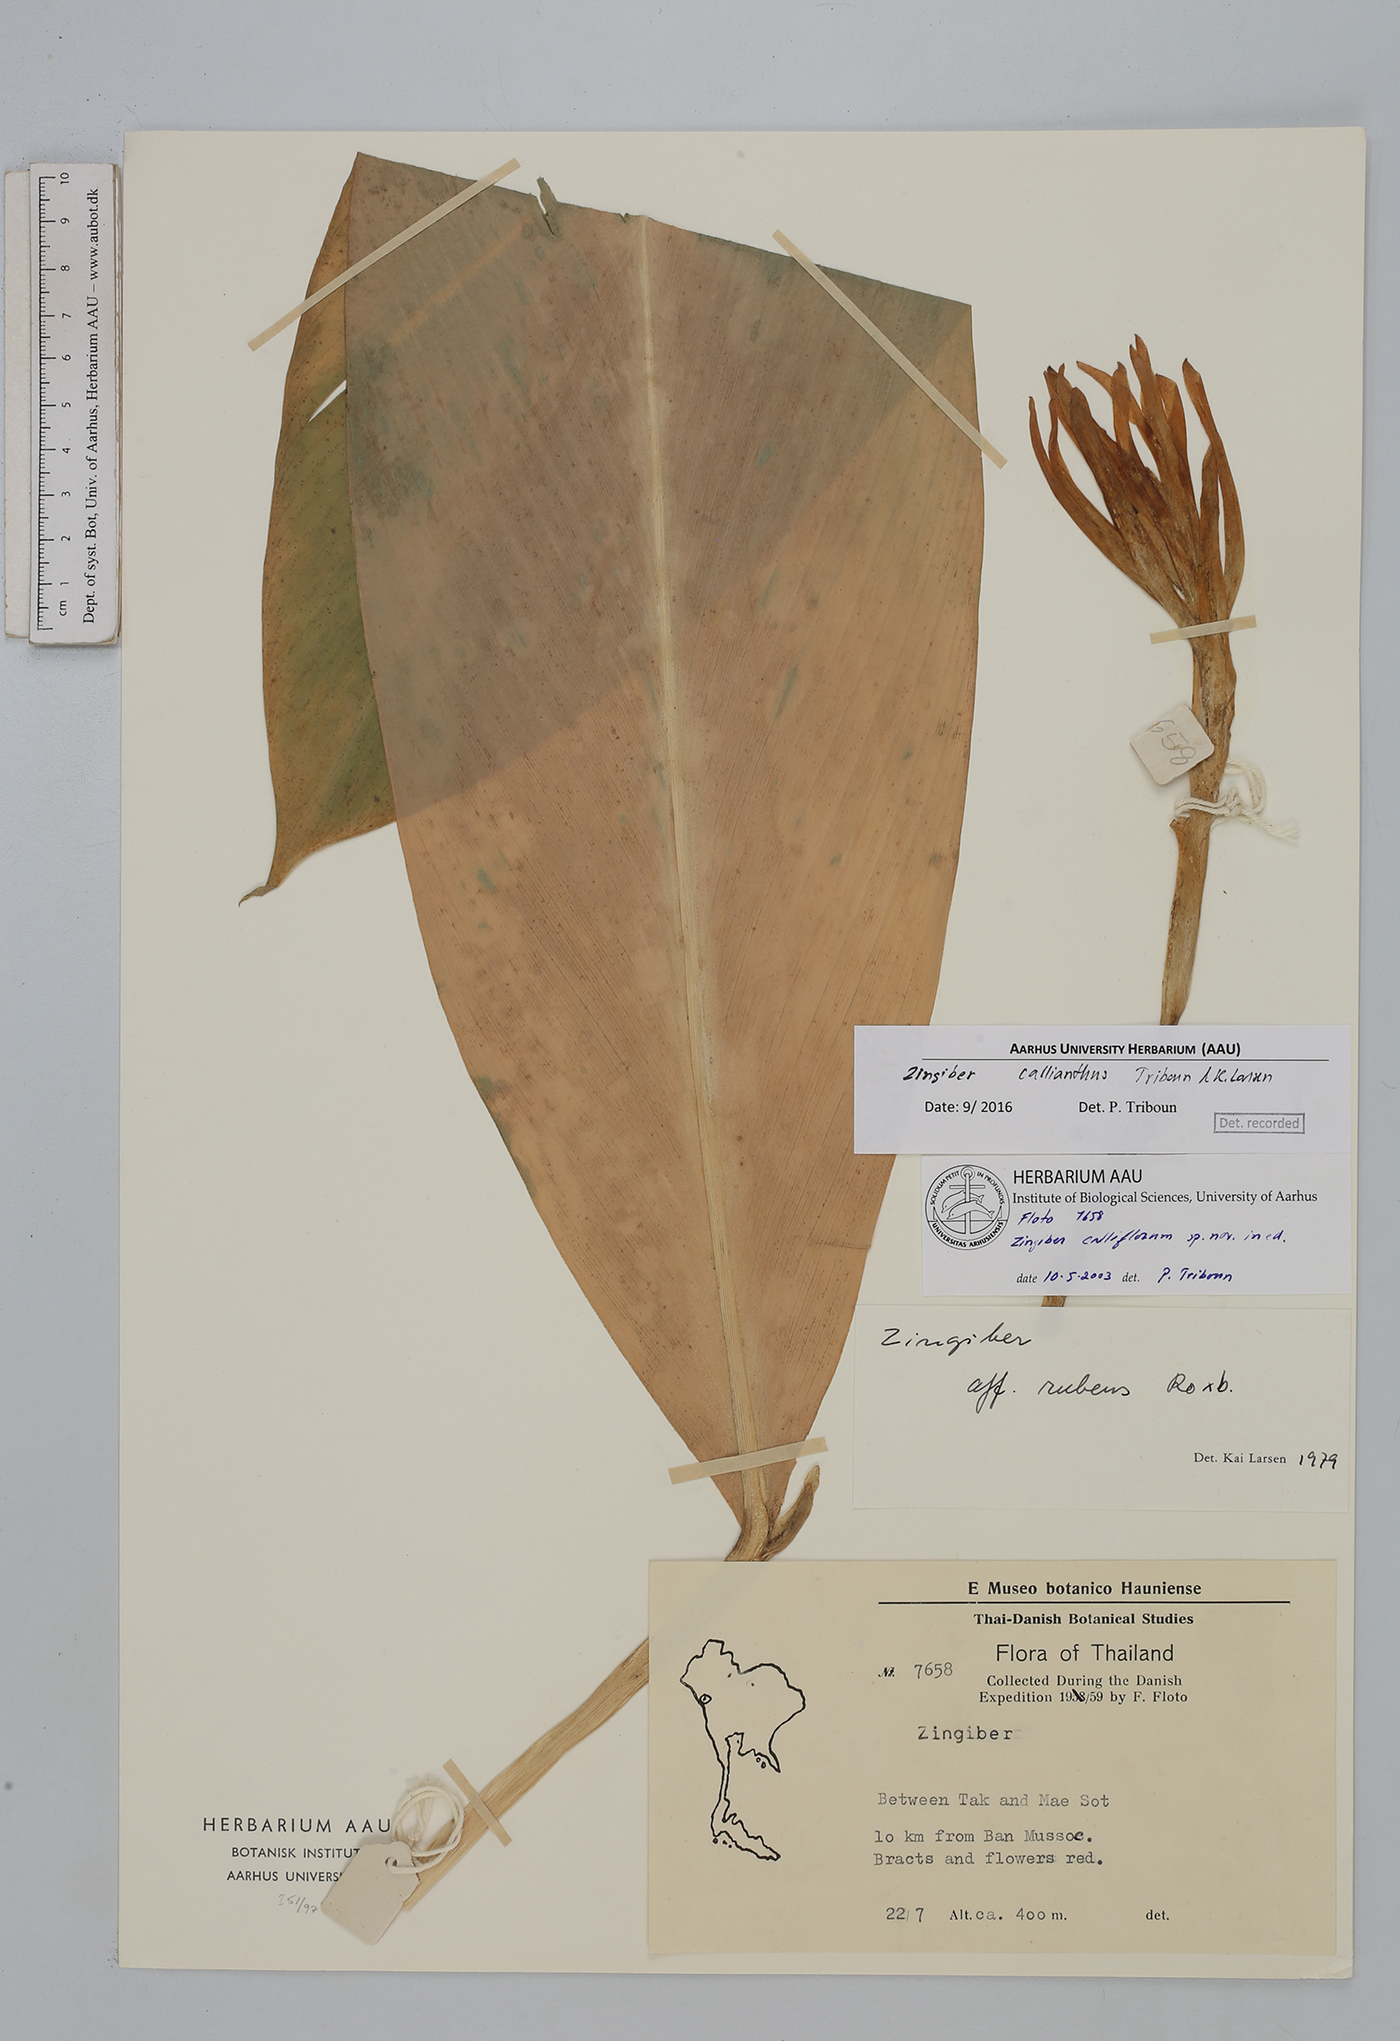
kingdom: Plantae
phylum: Tracheophyta
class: Liliopsida
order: Zingiberales
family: Zingiberaceae
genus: Zingiber
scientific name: Zingiber callianthum
